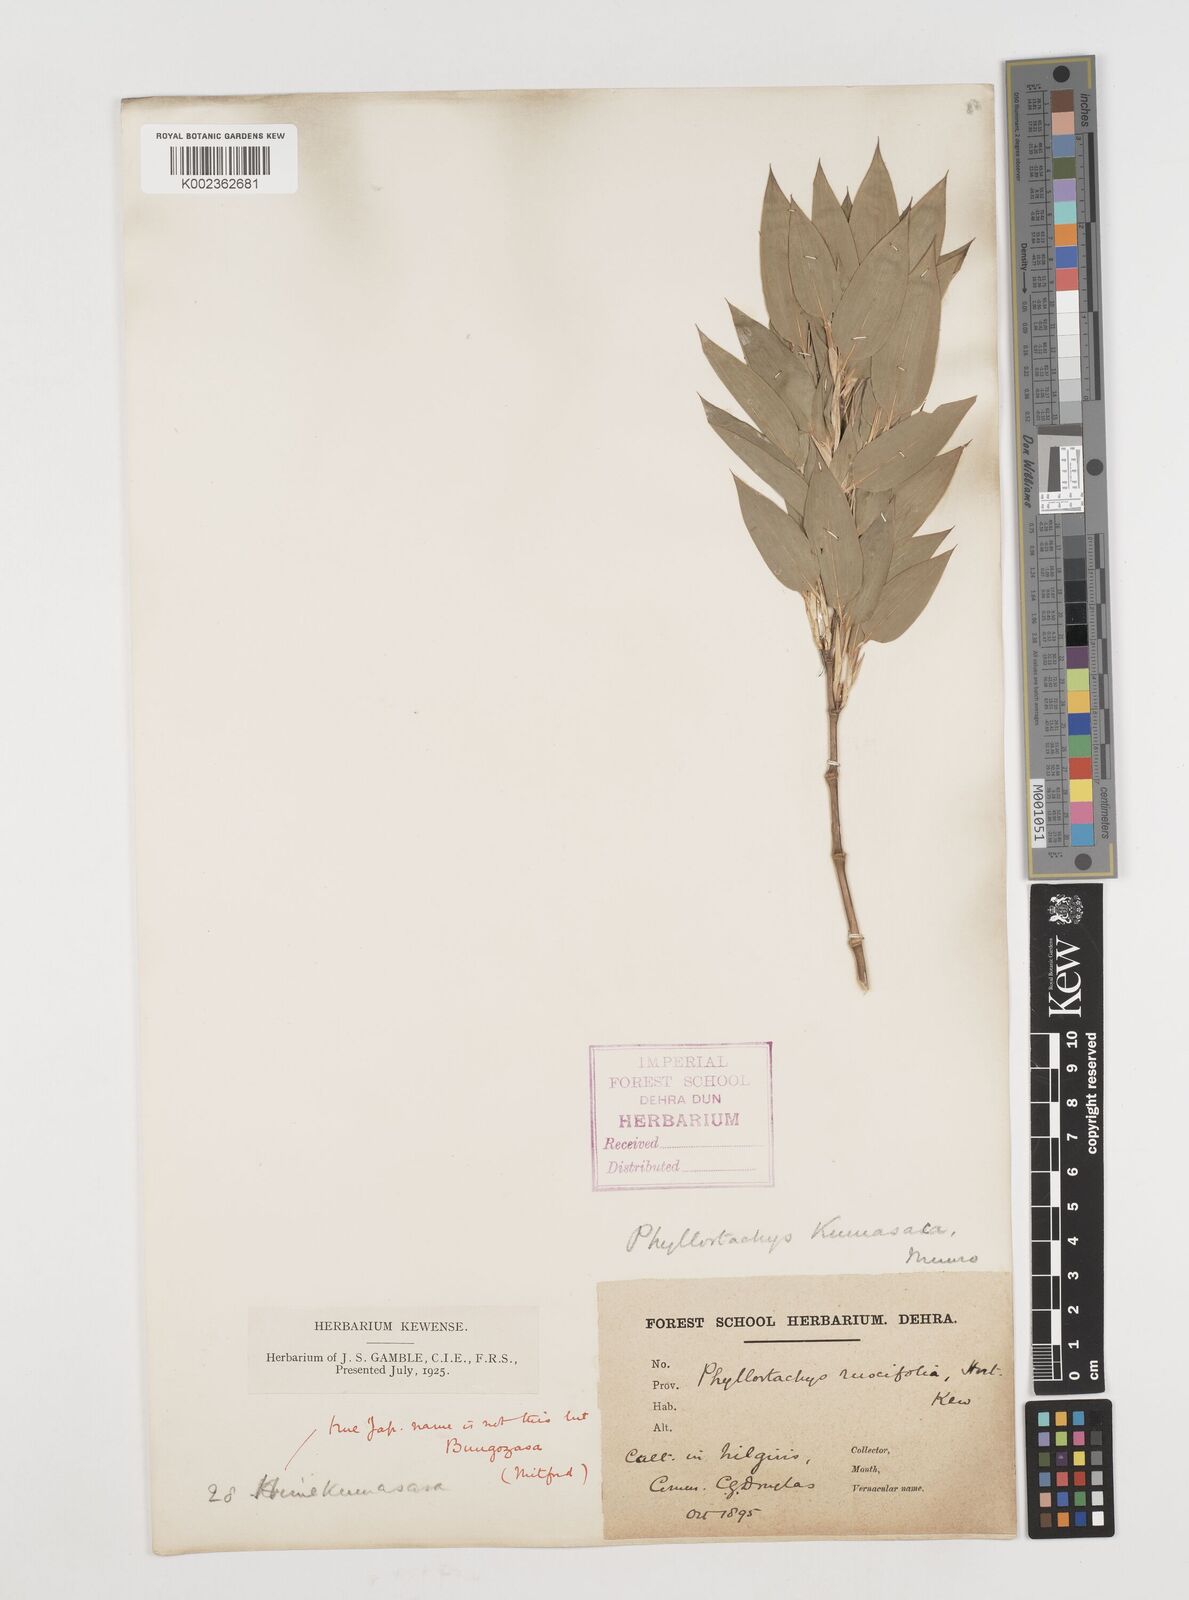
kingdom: Plantae
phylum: Tracheophyta
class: Liliopsida
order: Poales
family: Poaceae
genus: Shibataea
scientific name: Shibataea kumasasa
